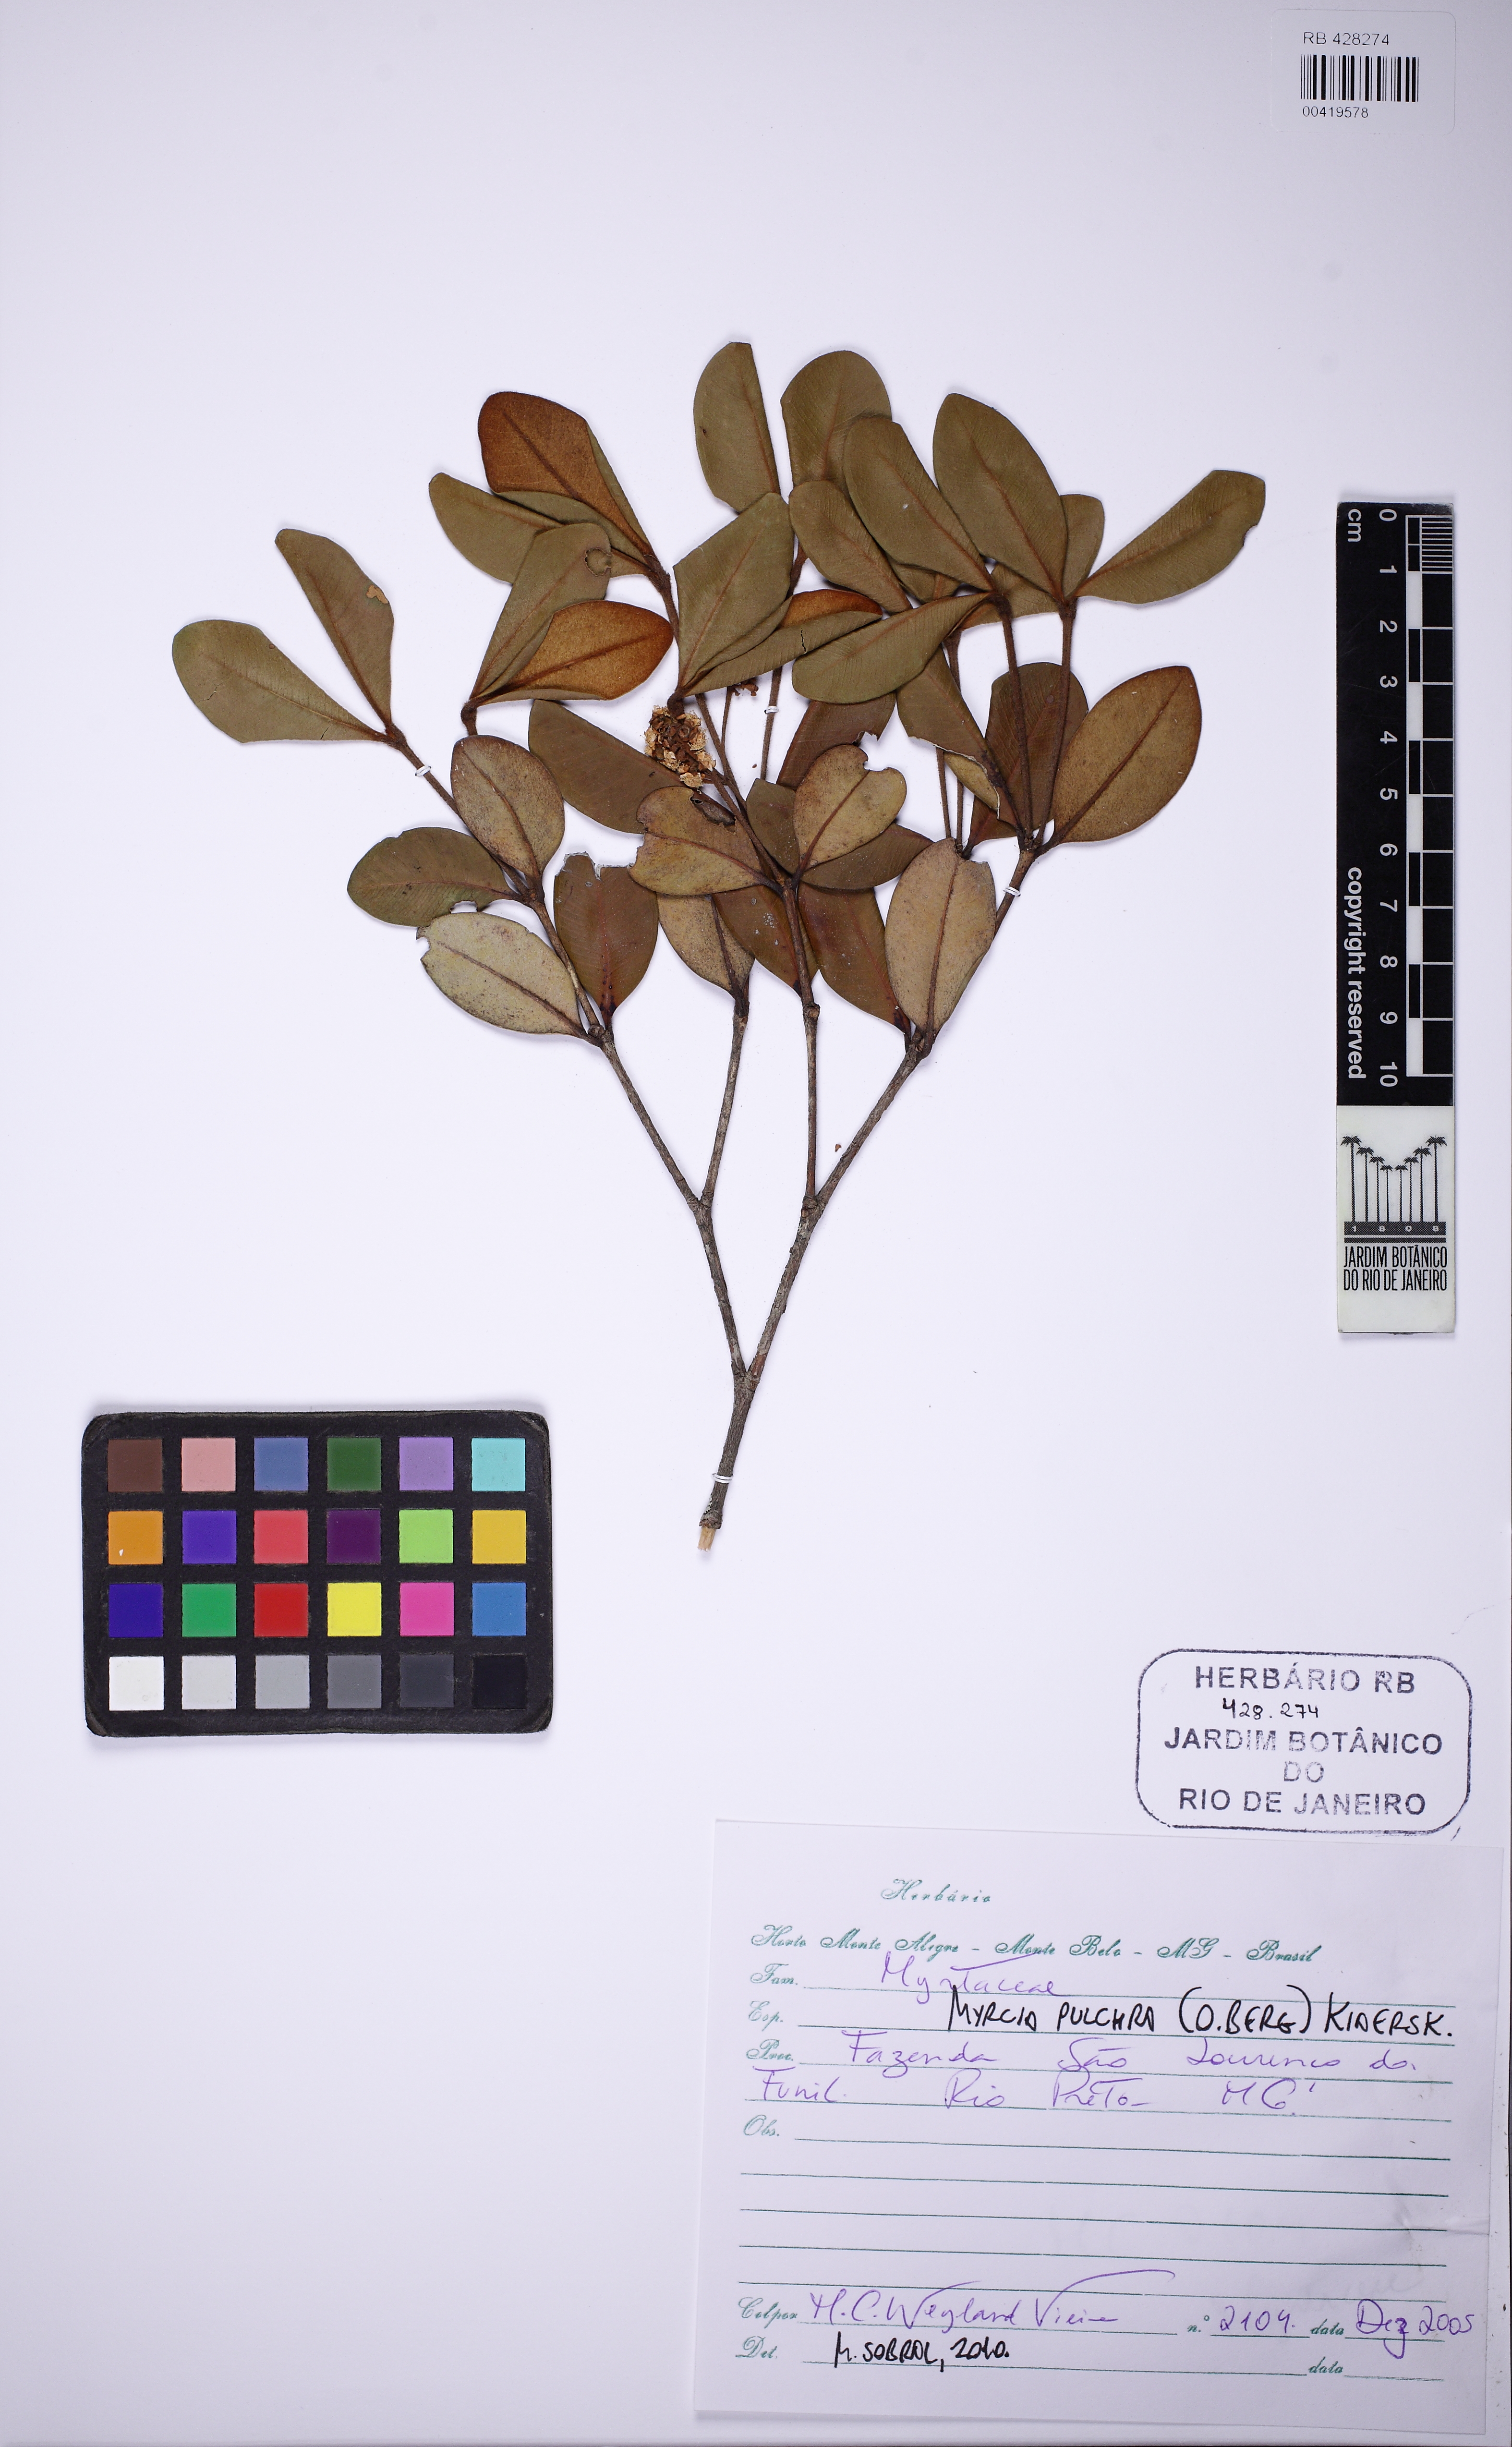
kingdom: Plantae
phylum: Tracheophyta
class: Magnoliopsida
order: Myrtales
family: Myrtaceae
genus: Myrcia
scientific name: Myrcia pulchra
